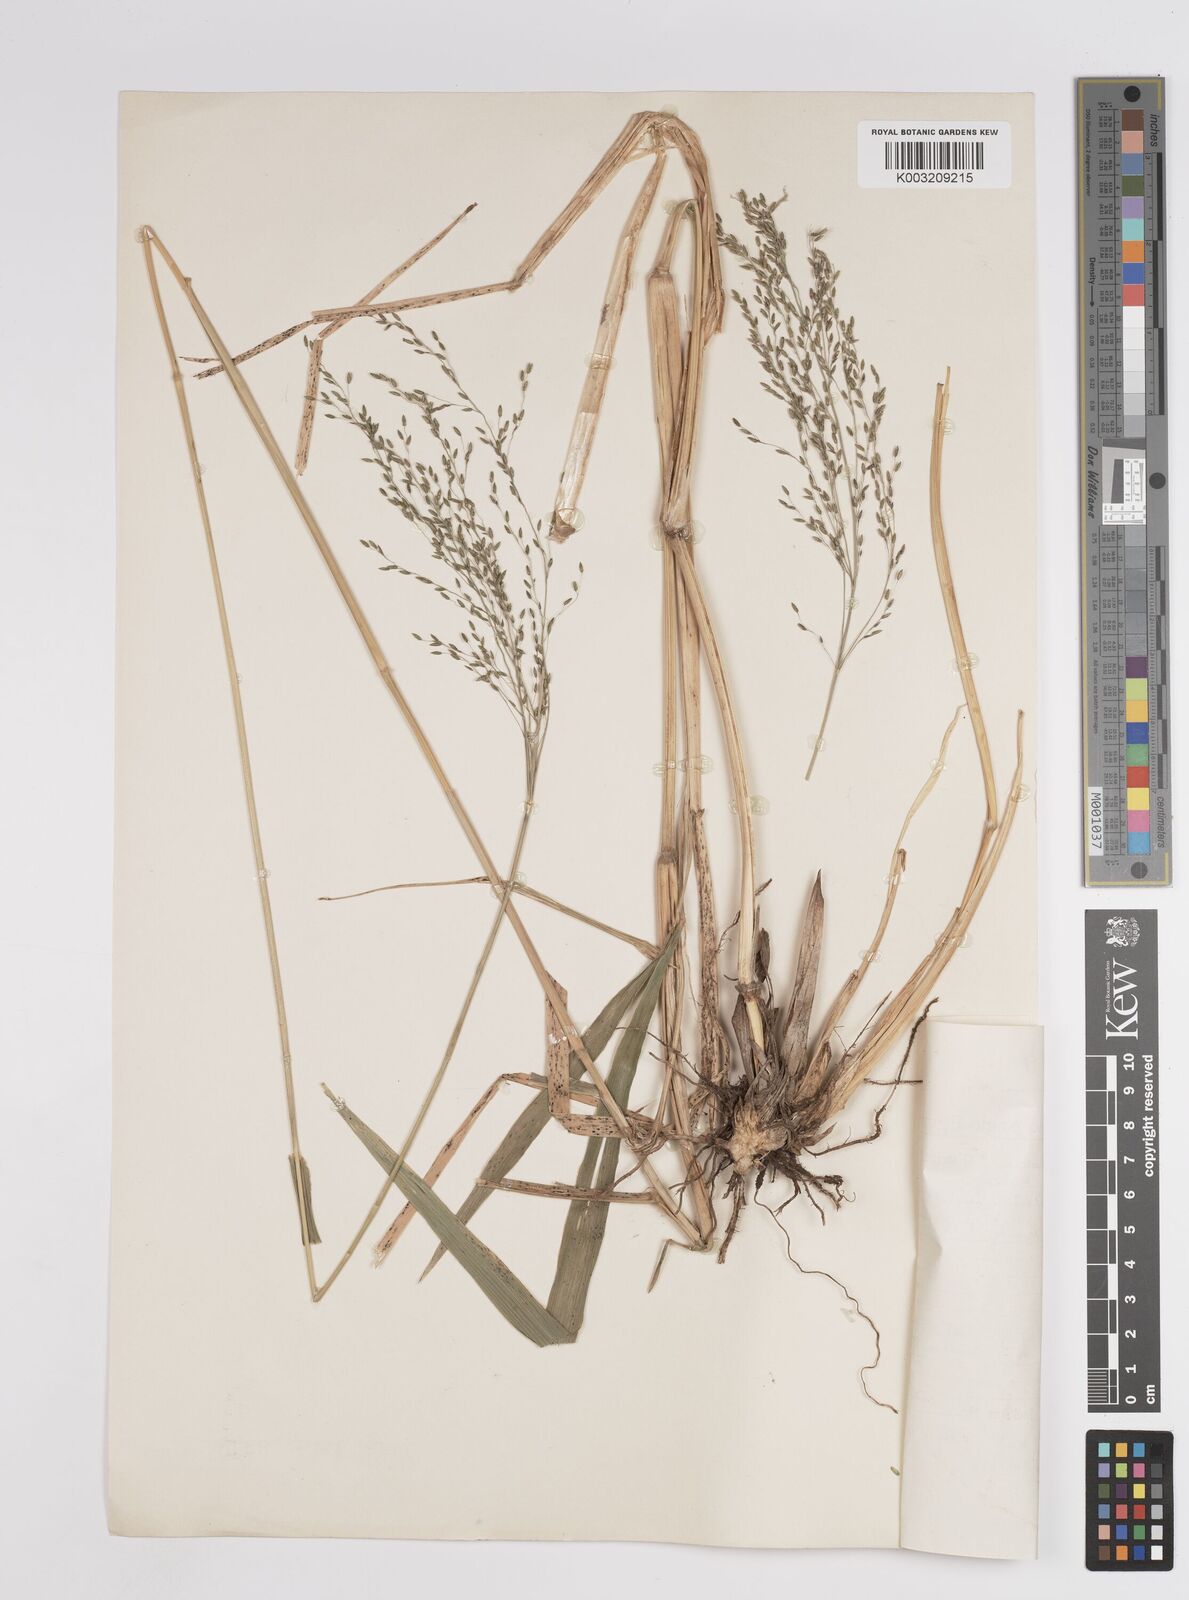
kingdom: Plantae
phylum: Tracheophyta
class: Liliopsida
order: Poales
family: Poaceae
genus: Megathyrsus
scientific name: Megathyrsus maximus
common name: Guineagrass
